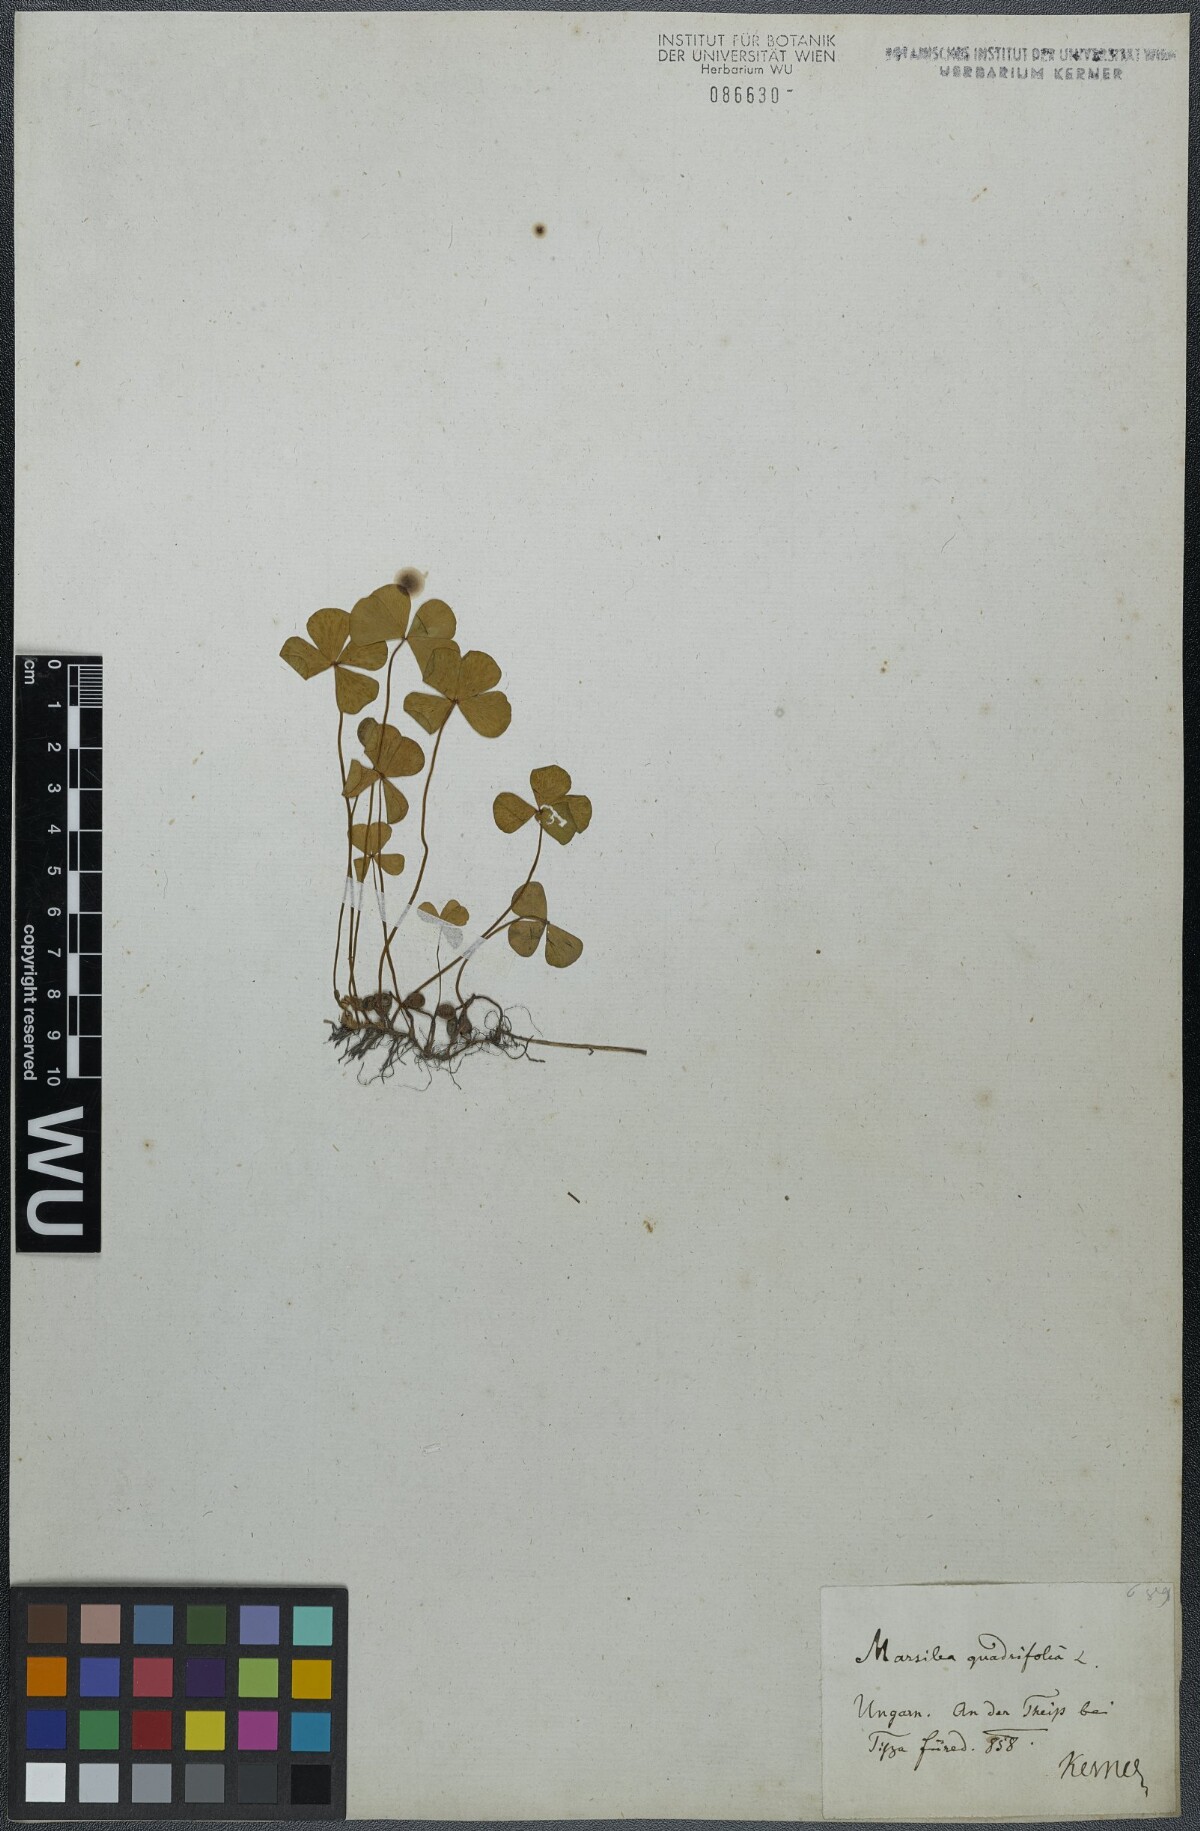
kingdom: Plantae
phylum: Tracheophyta
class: Polypodiopsida
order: Salviniales
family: Marsileaceae
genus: Marsilea
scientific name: Marsilea quadrifolia
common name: Water shamrock
